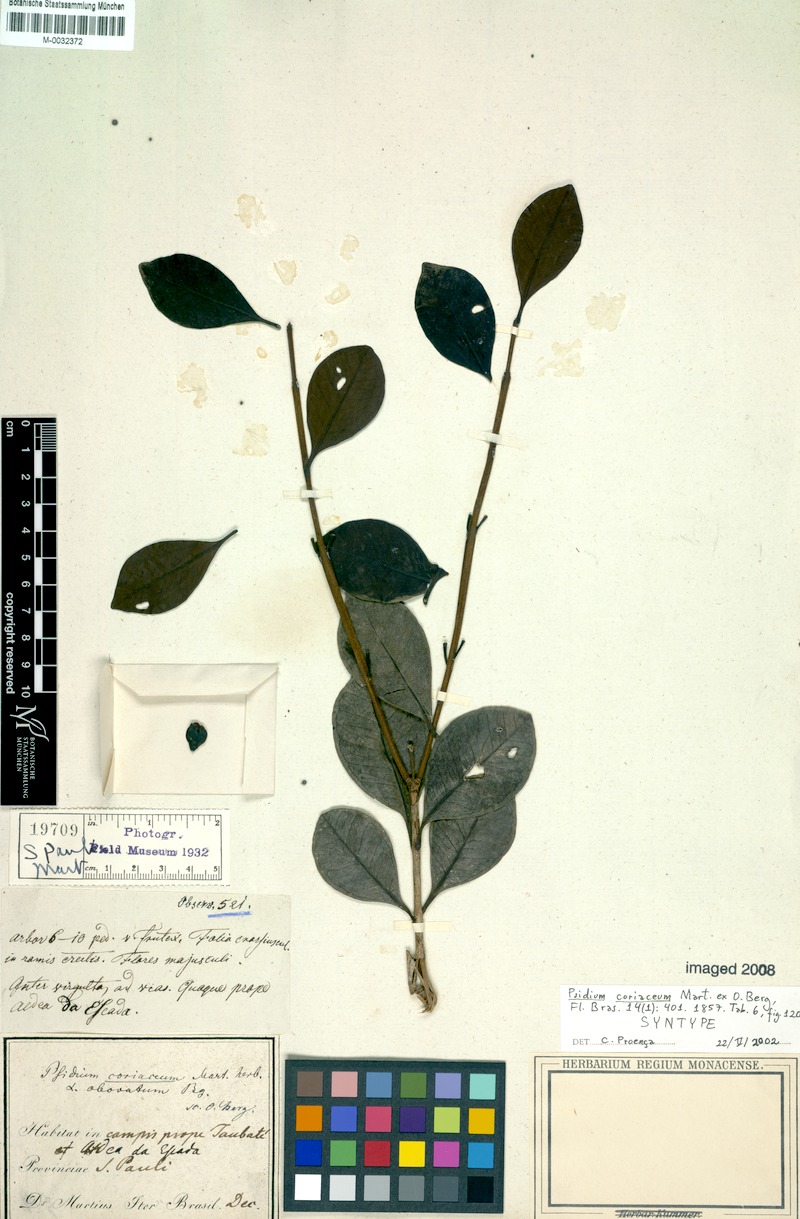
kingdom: Plantae
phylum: Tracheophyta
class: Magnoliopsida
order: Myrtales
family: Myrtaceae
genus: Psidium
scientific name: Psidium cattleianum
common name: Strawberry guava
